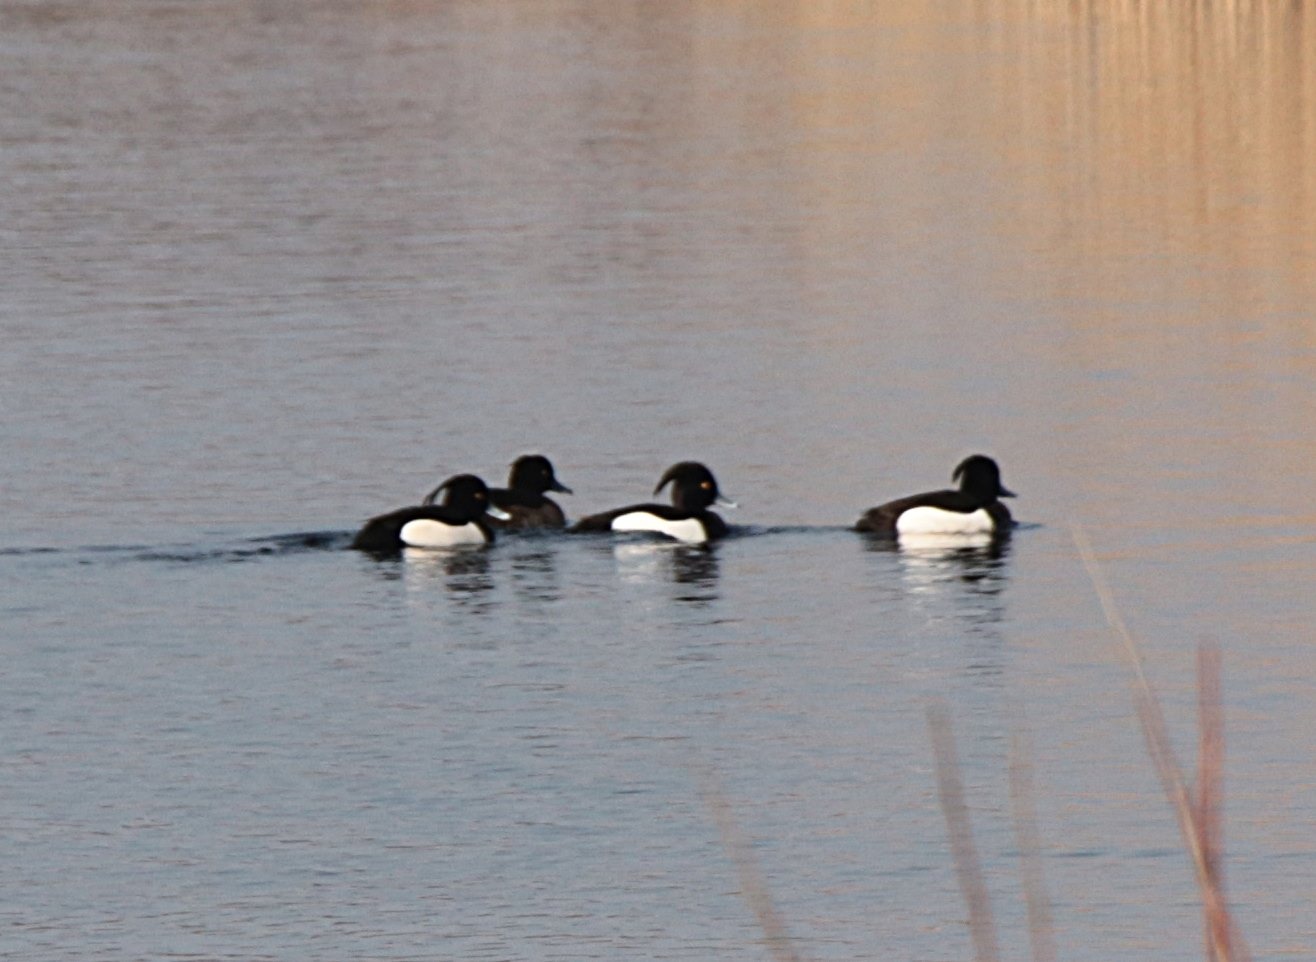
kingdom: Animalia
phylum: Chordata
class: Aves
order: Anseriformes
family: Anatidae
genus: Aythya
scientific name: Aythya fuligula
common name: Troldand
